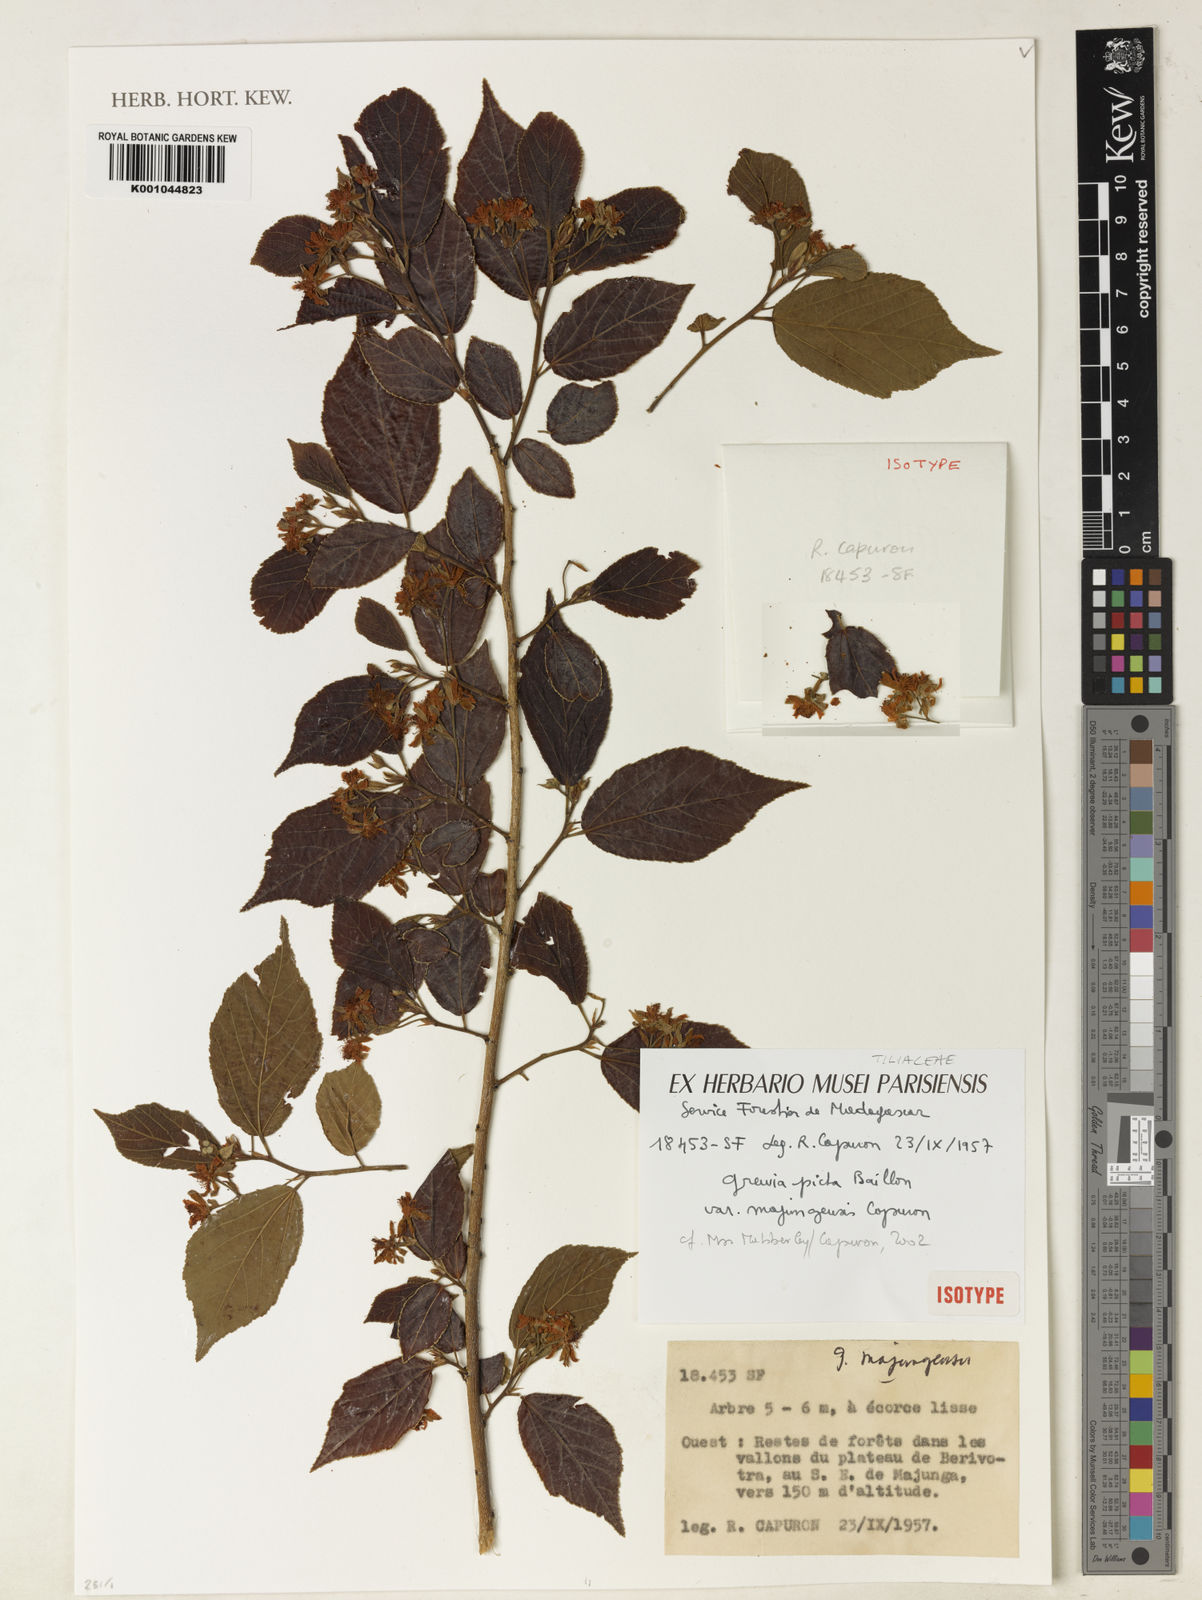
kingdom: Plantae
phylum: Tracheophyta
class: Magnoliopsida
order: Malvales
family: Malvaceae
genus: Grewia
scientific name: Grewia picta
